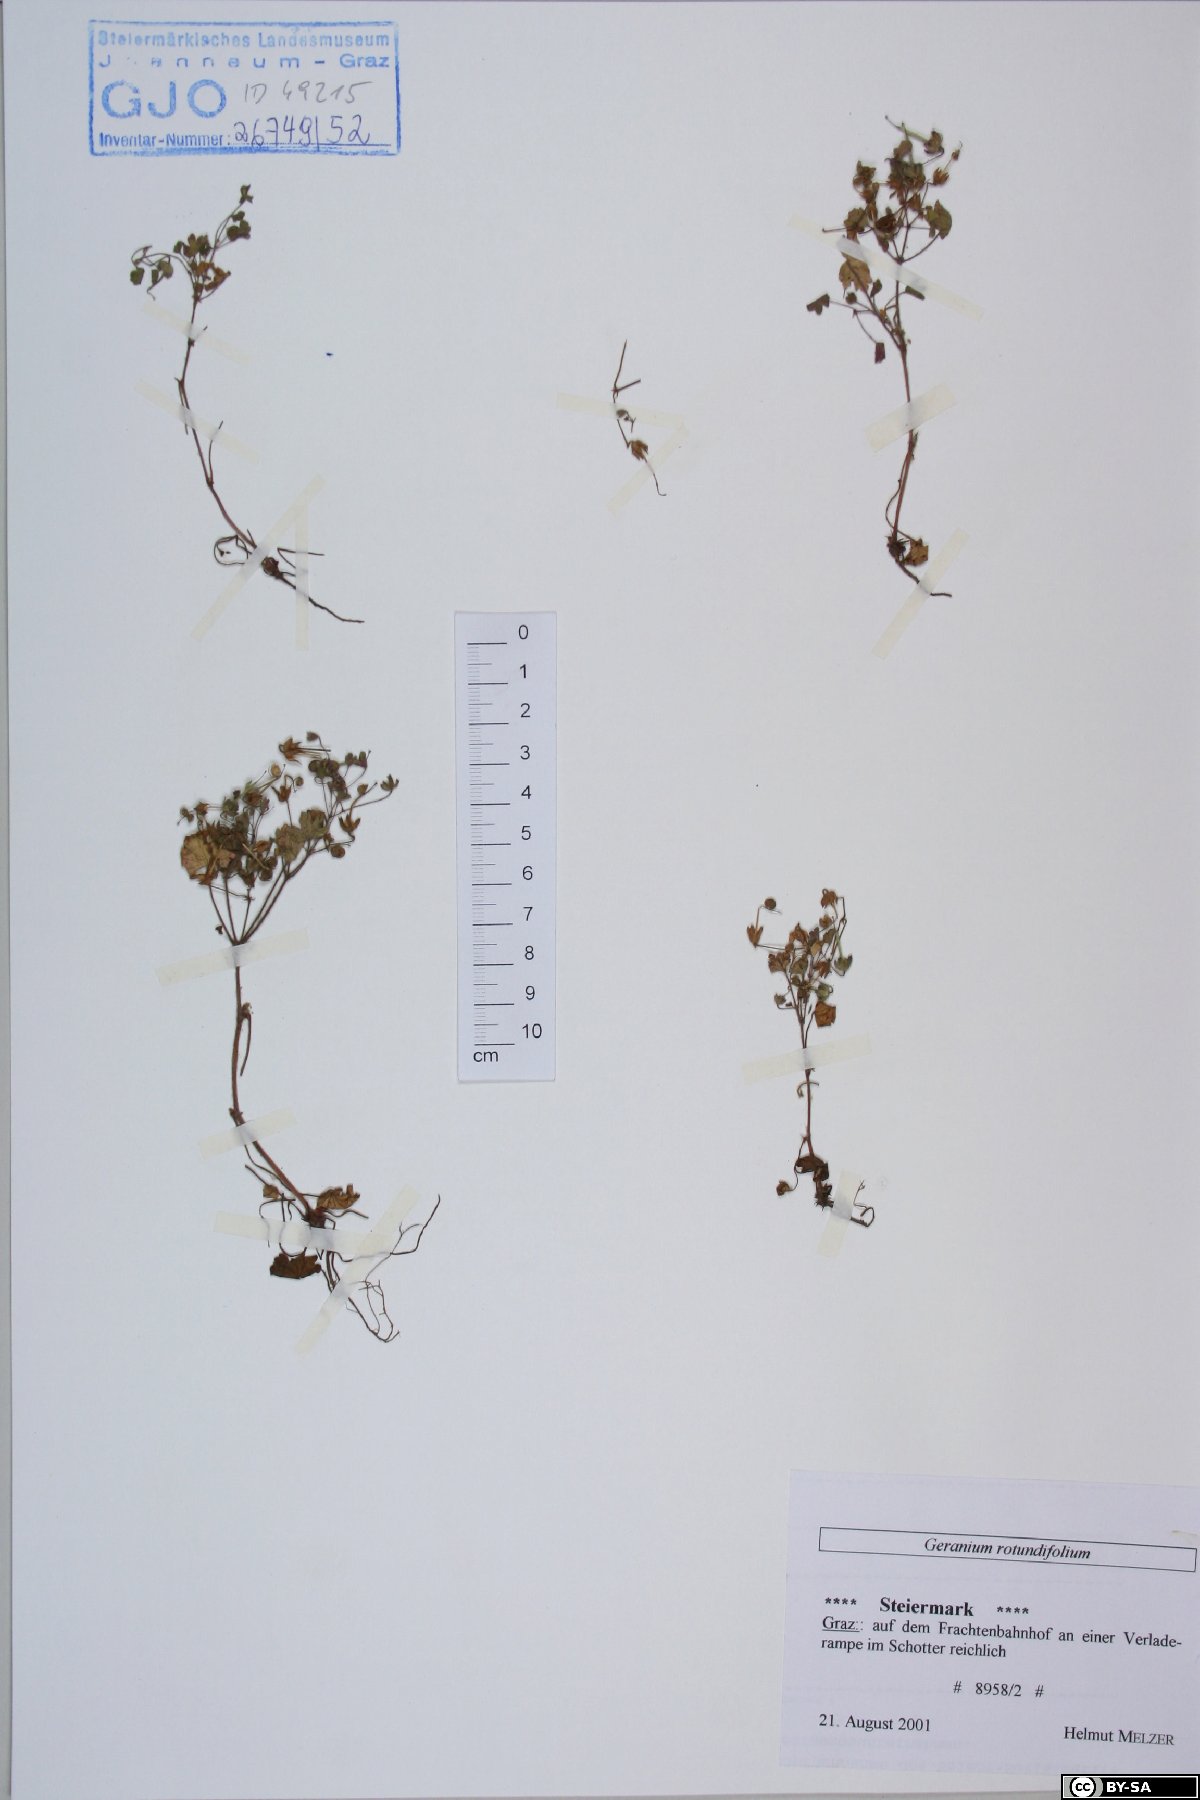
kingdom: Plantae
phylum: Tracheophyta
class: Magnoliopsida
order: Geraniales
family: Geraniaceae
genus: Geranium
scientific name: Geranium rotundifolium
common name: Round-leaved crane's-bill
